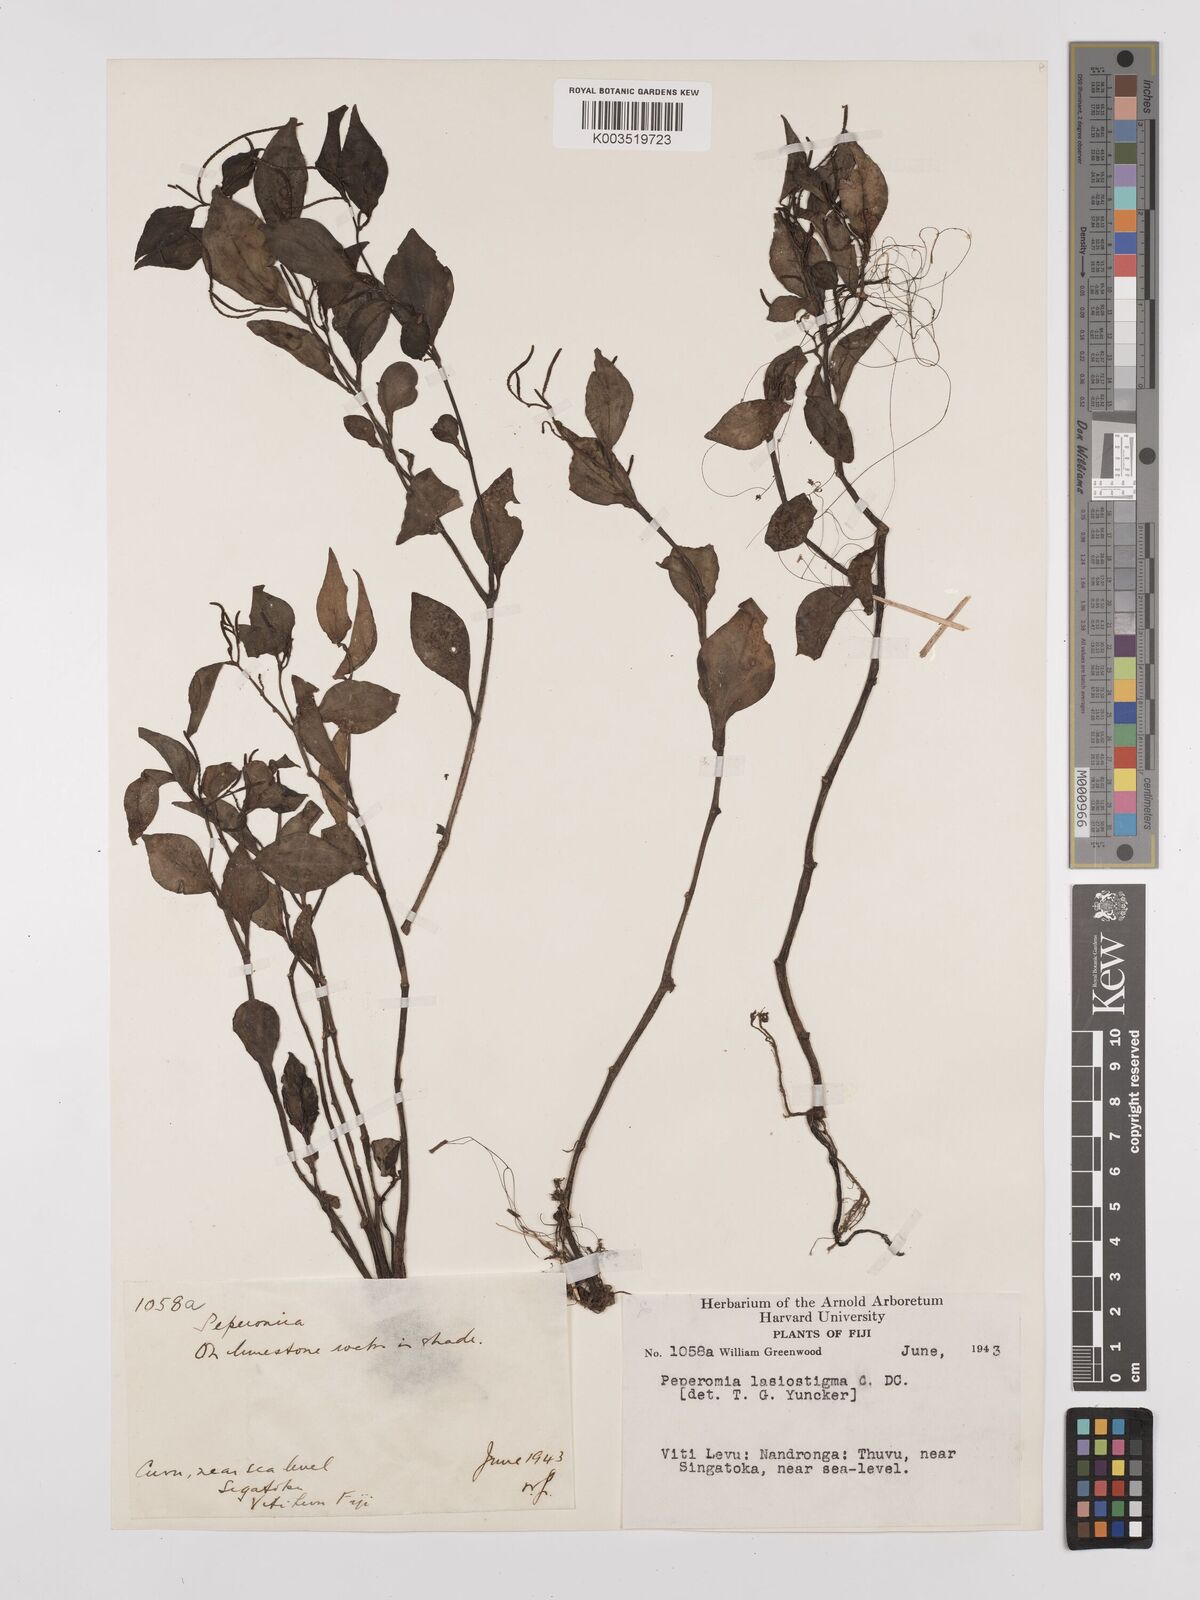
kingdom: Plantae
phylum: Tracheophyta
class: Magnoliopsida
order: Piperales
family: Piperaceae
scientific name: Piperaceae
